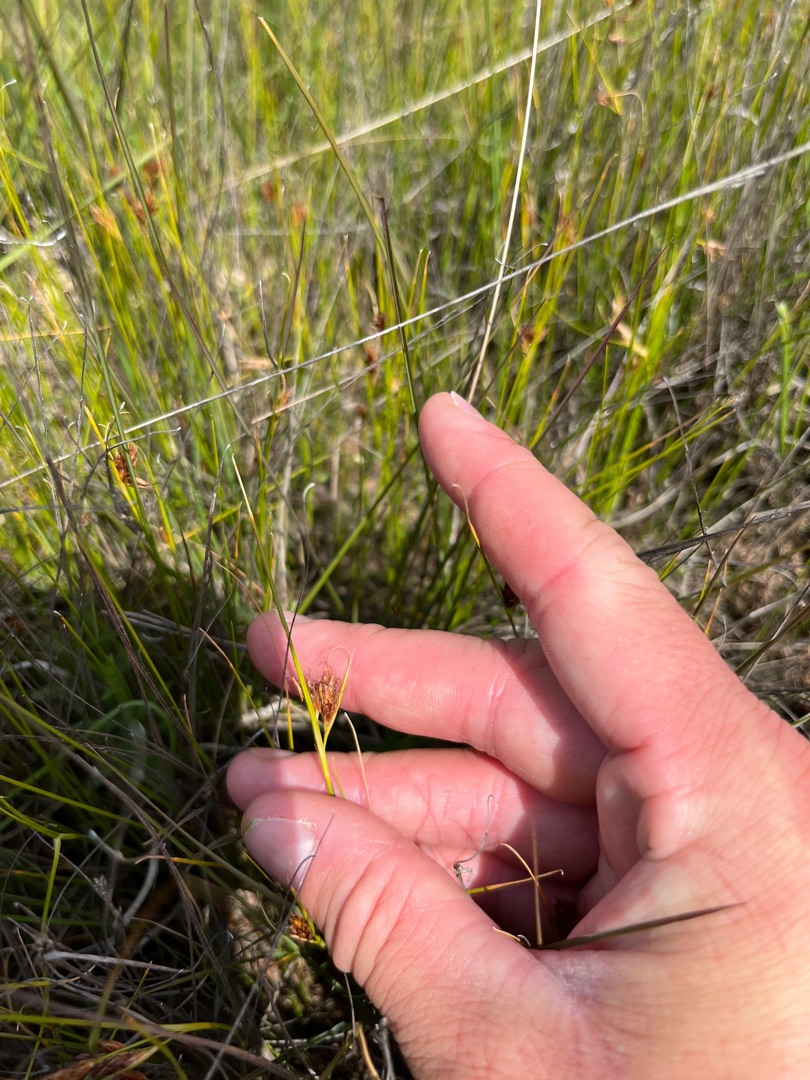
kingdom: Plantae
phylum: Tracheophyta
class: Liliopsida
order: Poales
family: Cyperaceae
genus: Rhynchospora
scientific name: Rhynchospora fusca
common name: Brun næbfrø
